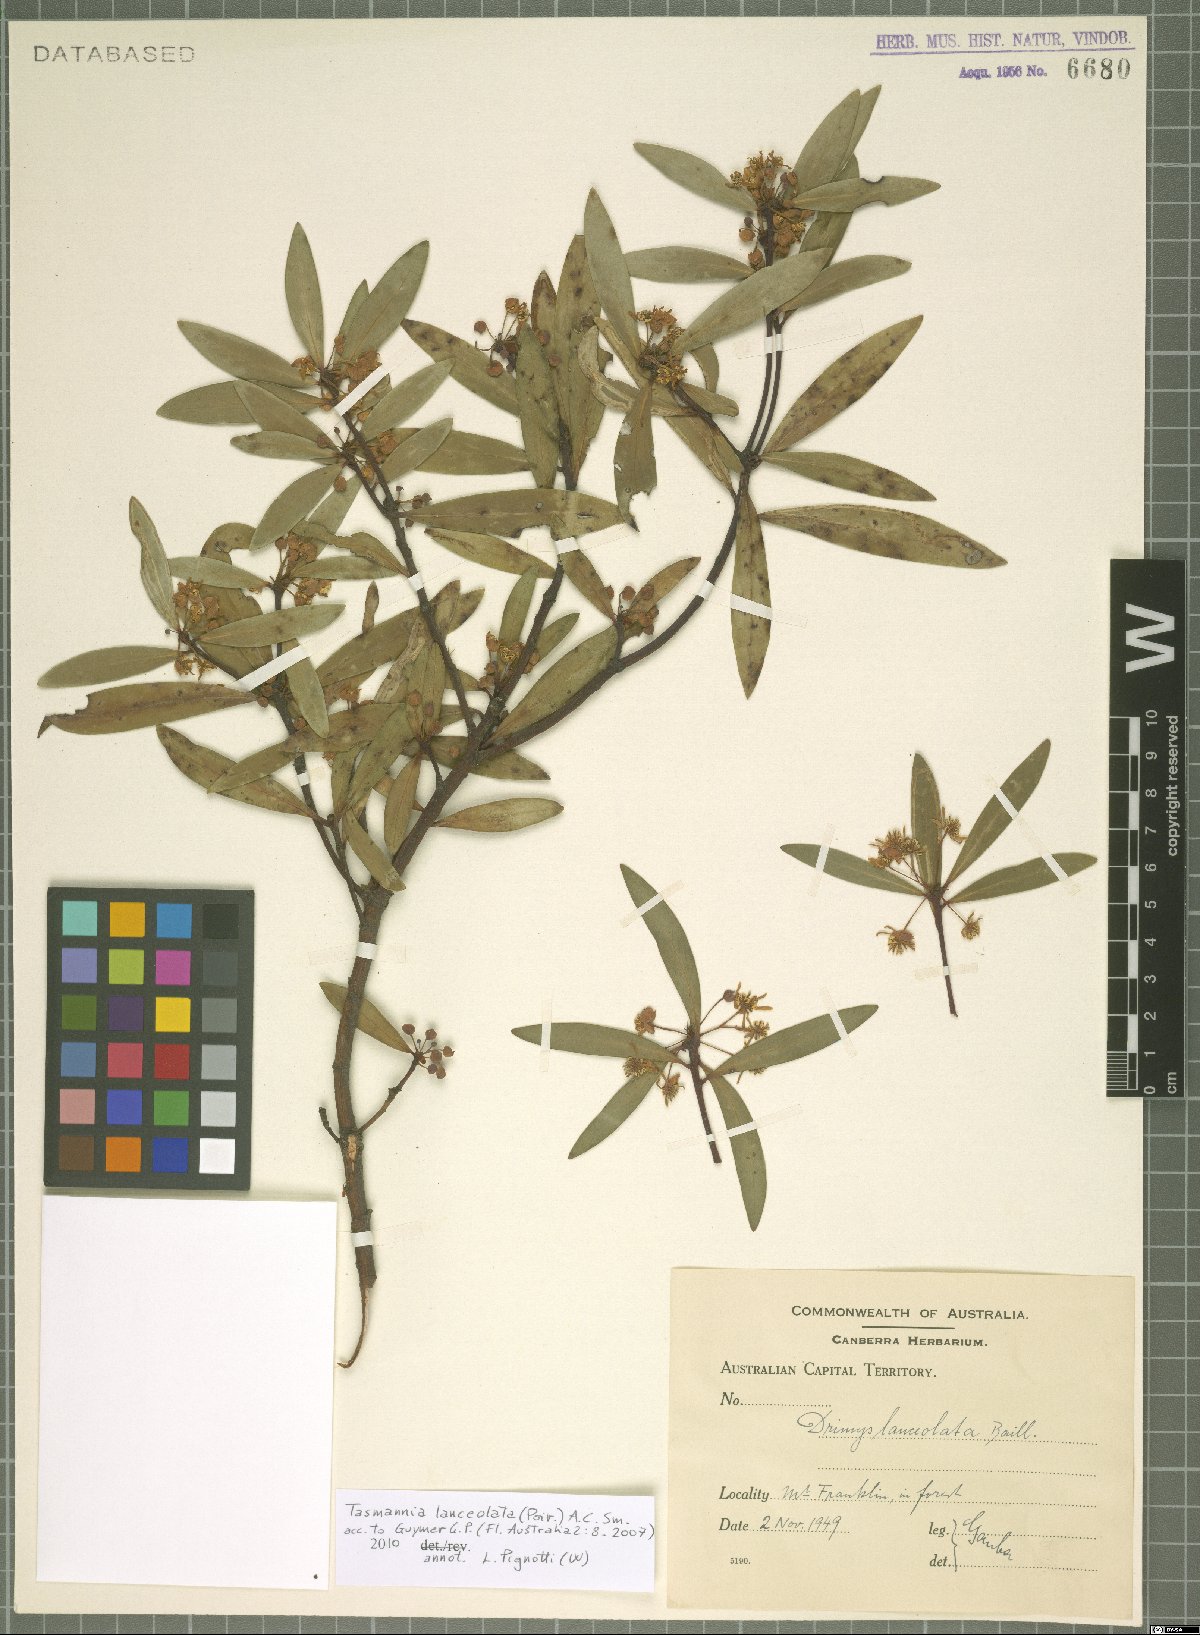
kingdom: Plantae
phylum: Tracheophyta
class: Magnoliopsida
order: Canellales
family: Winteraceae
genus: Drimys
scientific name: Drimys aromatica
